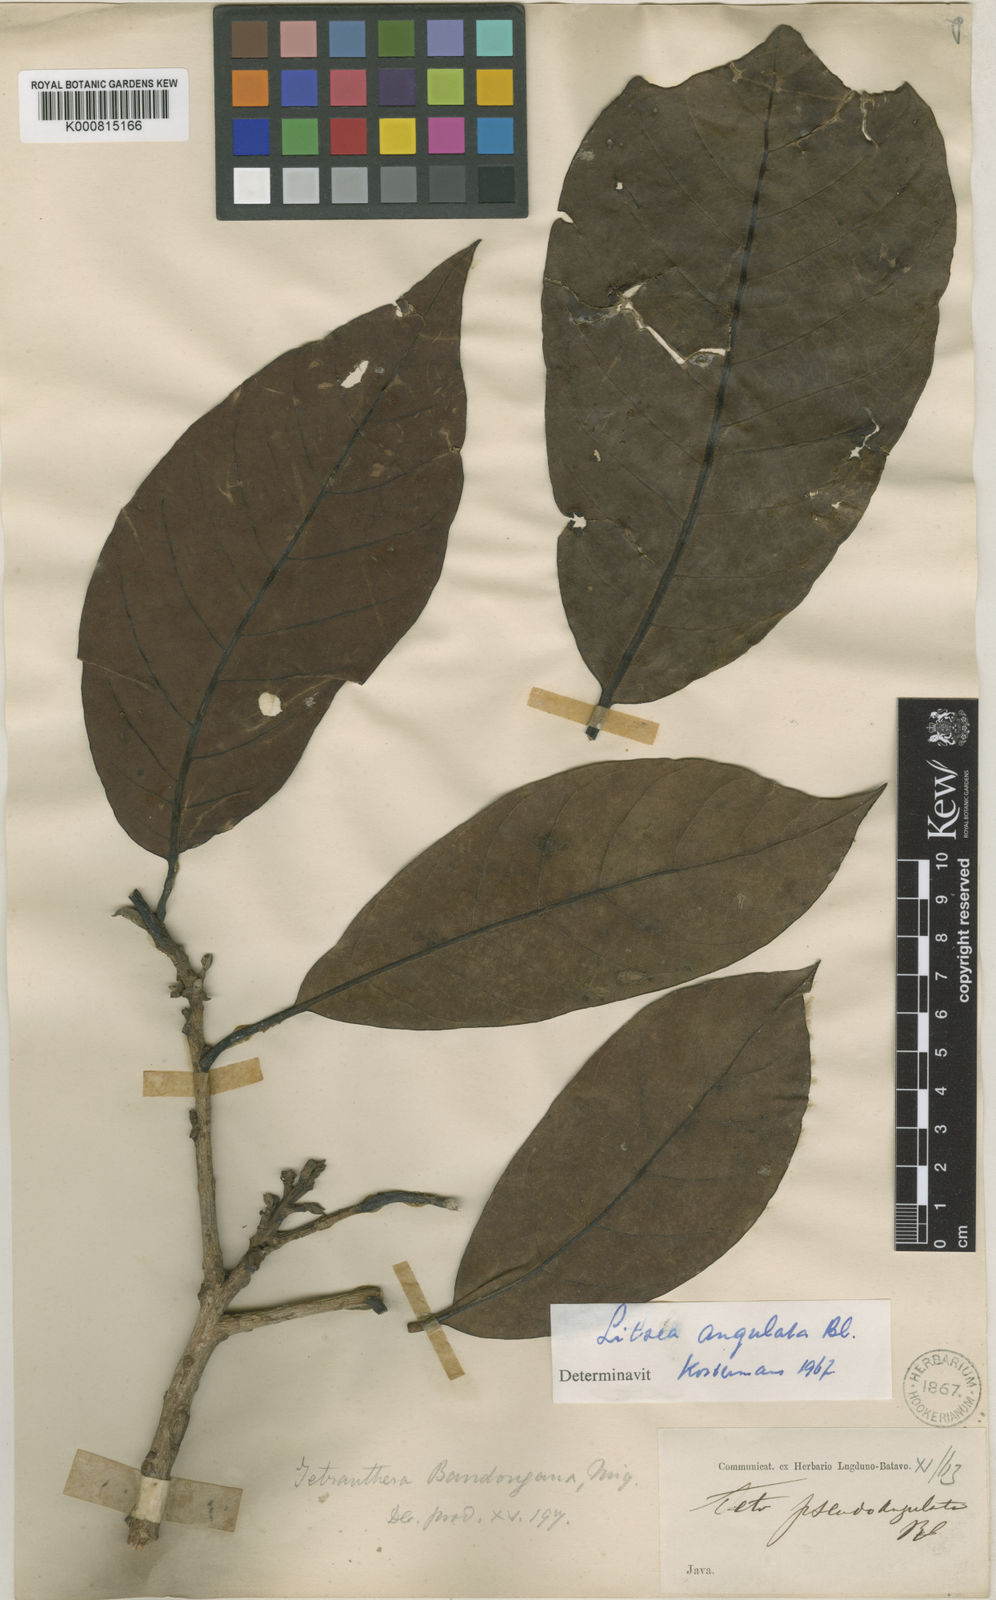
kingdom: Plantae
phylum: Tracheophyta
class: Magnoliopsida
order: Laurales
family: Lauraceae
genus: Litsea
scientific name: Litsea angulata
